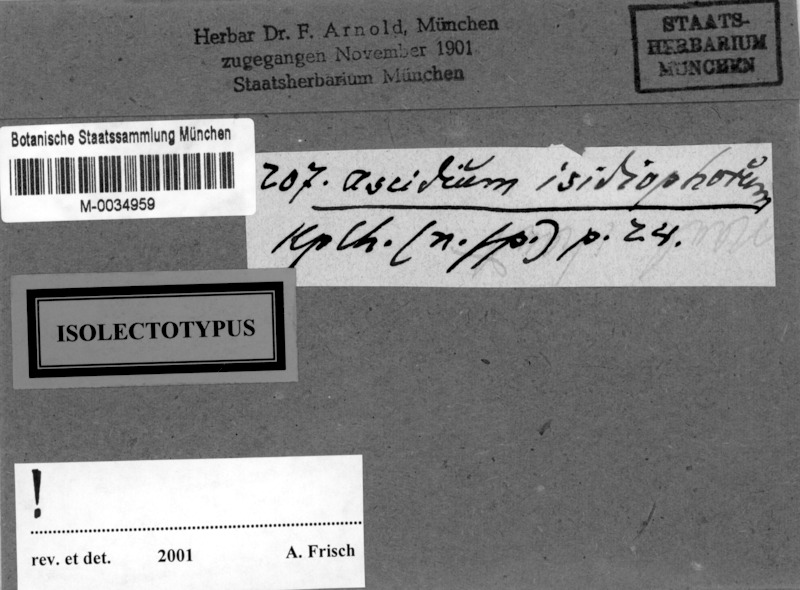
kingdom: Fungi
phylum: Ascomycota
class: Lecanoromycetes
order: Ostropales
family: Graphidaceae
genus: Thelotrema
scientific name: Thelotrema isidiophorum
